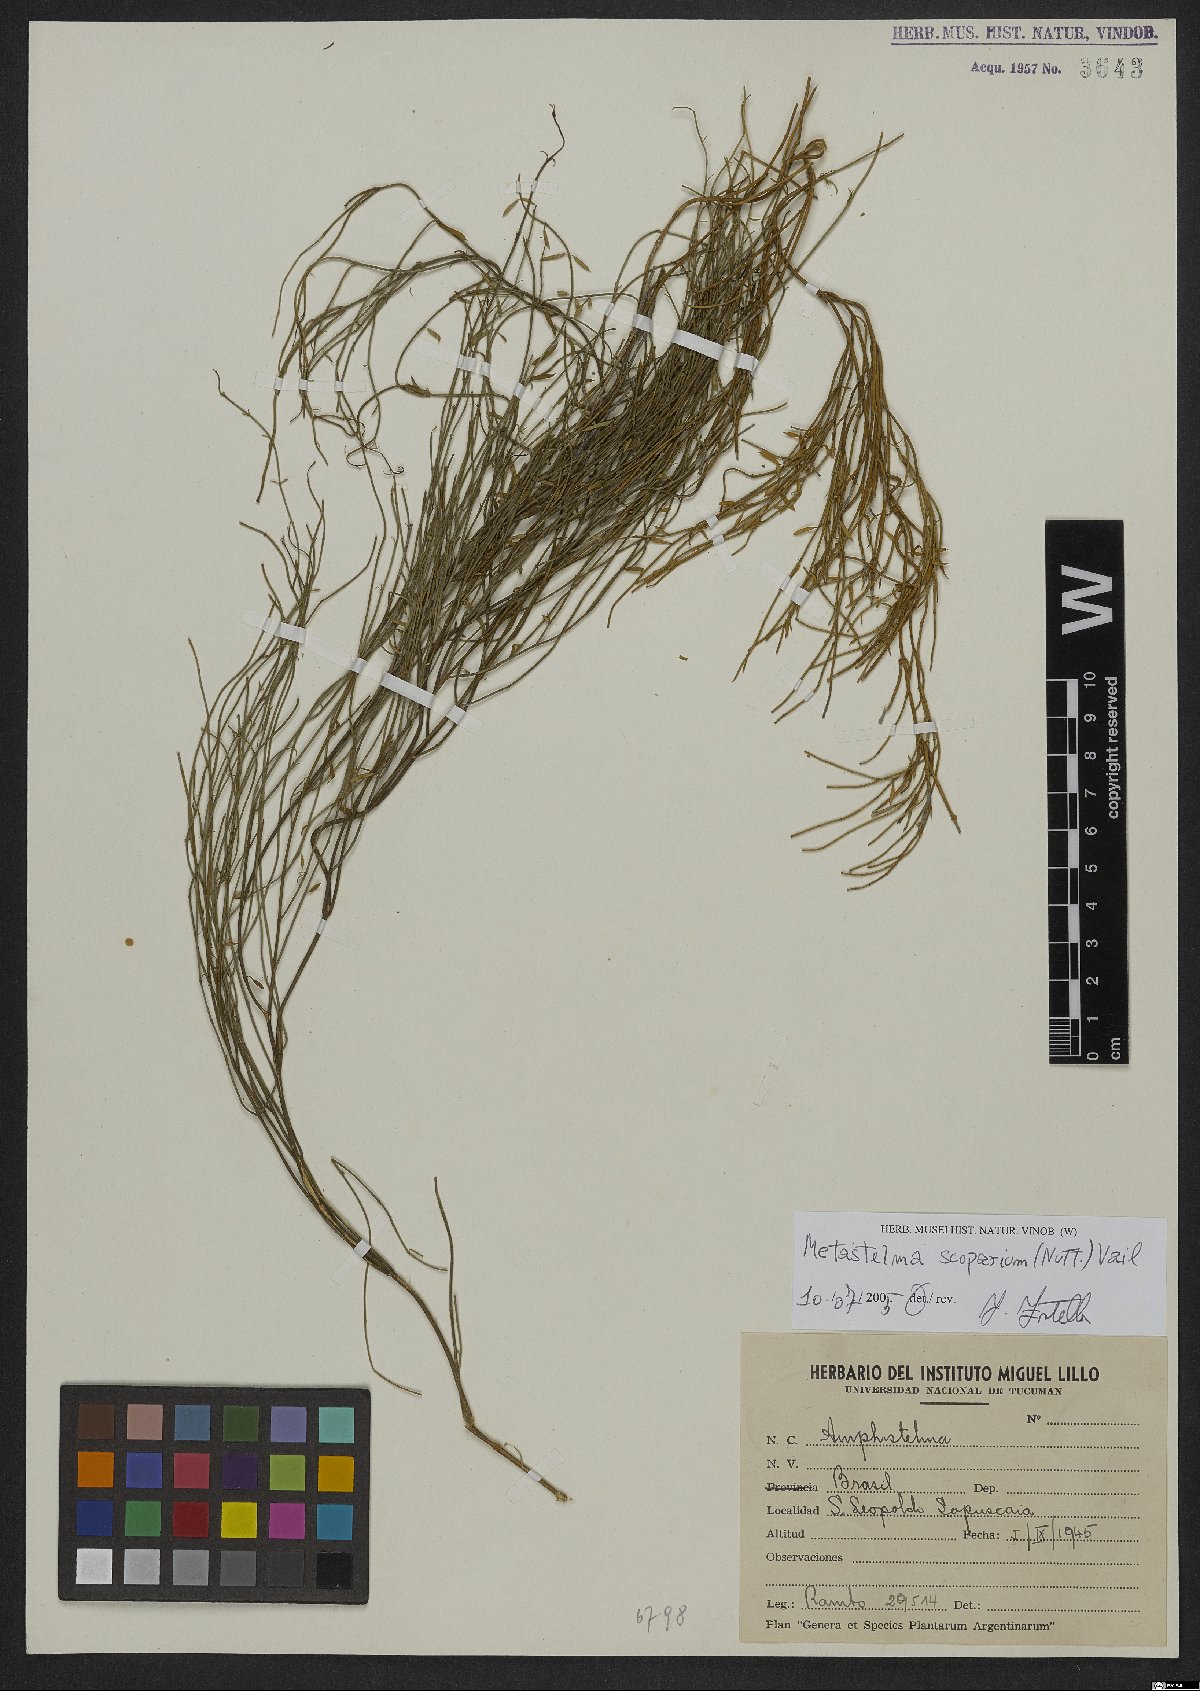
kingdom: Plantae
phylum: Tracheophyta
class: Magnoliopsida
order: Gentianales
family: Apocynaceae
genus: Orthosia
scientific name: Orthosia scoparia
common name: Leafless swallow-wort
